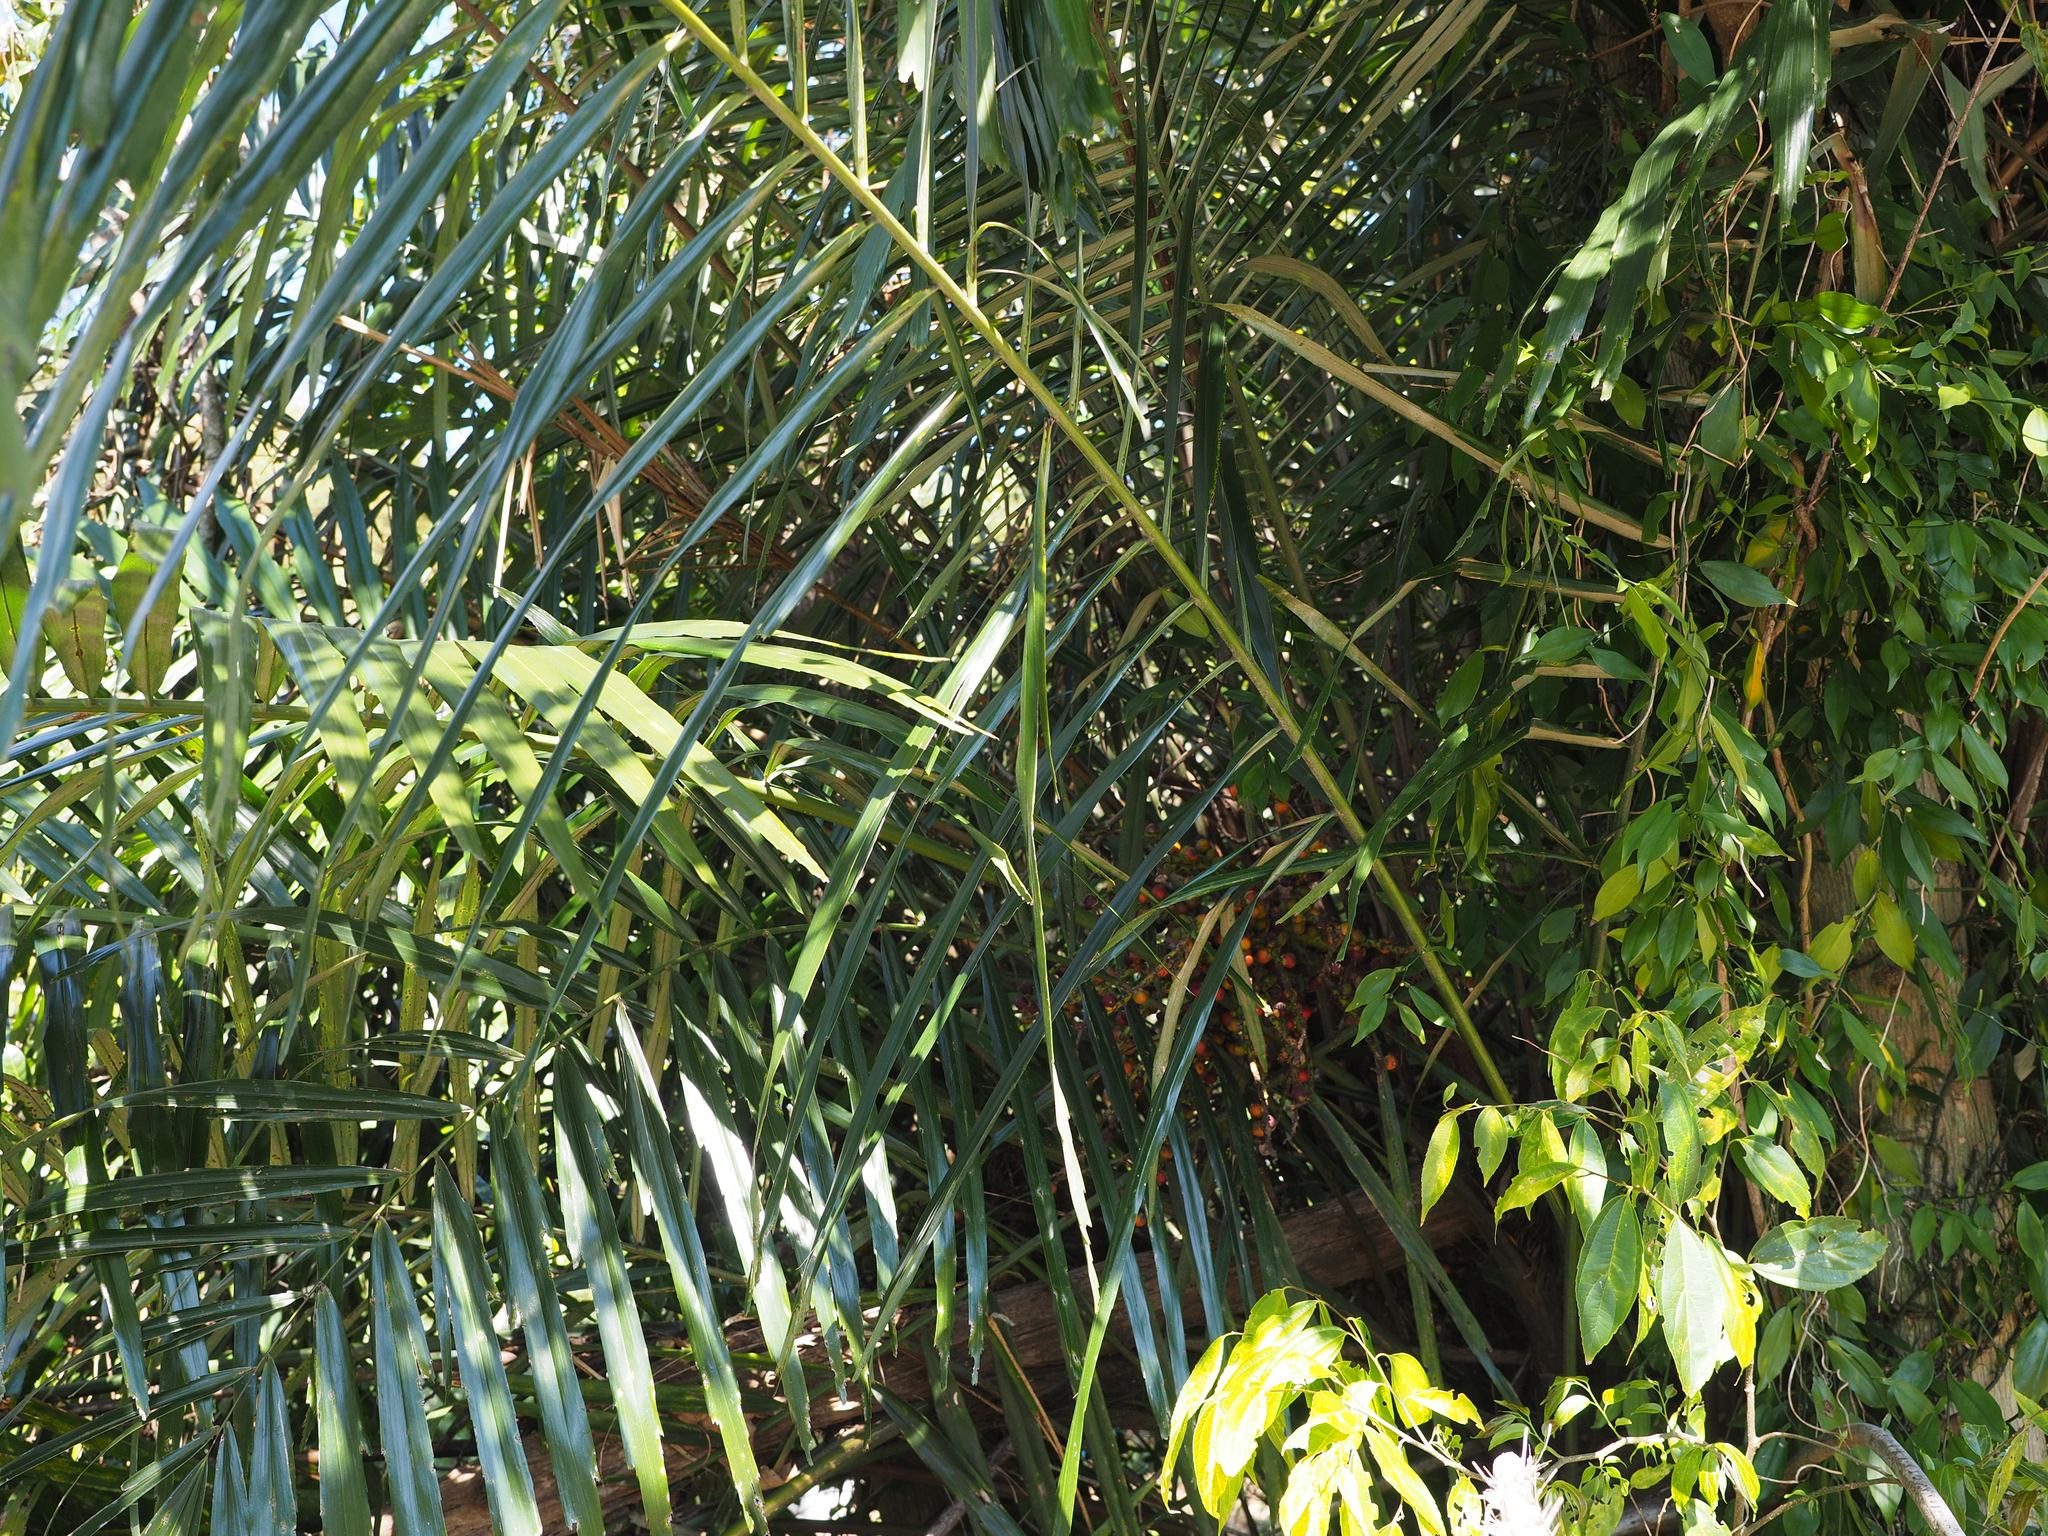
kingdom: Plantae
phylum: Tracheophyta
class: Liliopsida
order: Arecales
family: Arecaceae
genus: Arenga
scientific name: Arenga tremula
